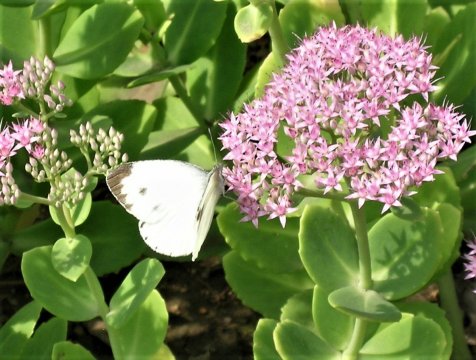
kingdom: Animalia
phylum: Arthropoda
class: Insecta
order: Lepidoptera
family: Pieridae
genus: Pieris
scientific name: Pieris canidia
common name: Indian Cabbage White
